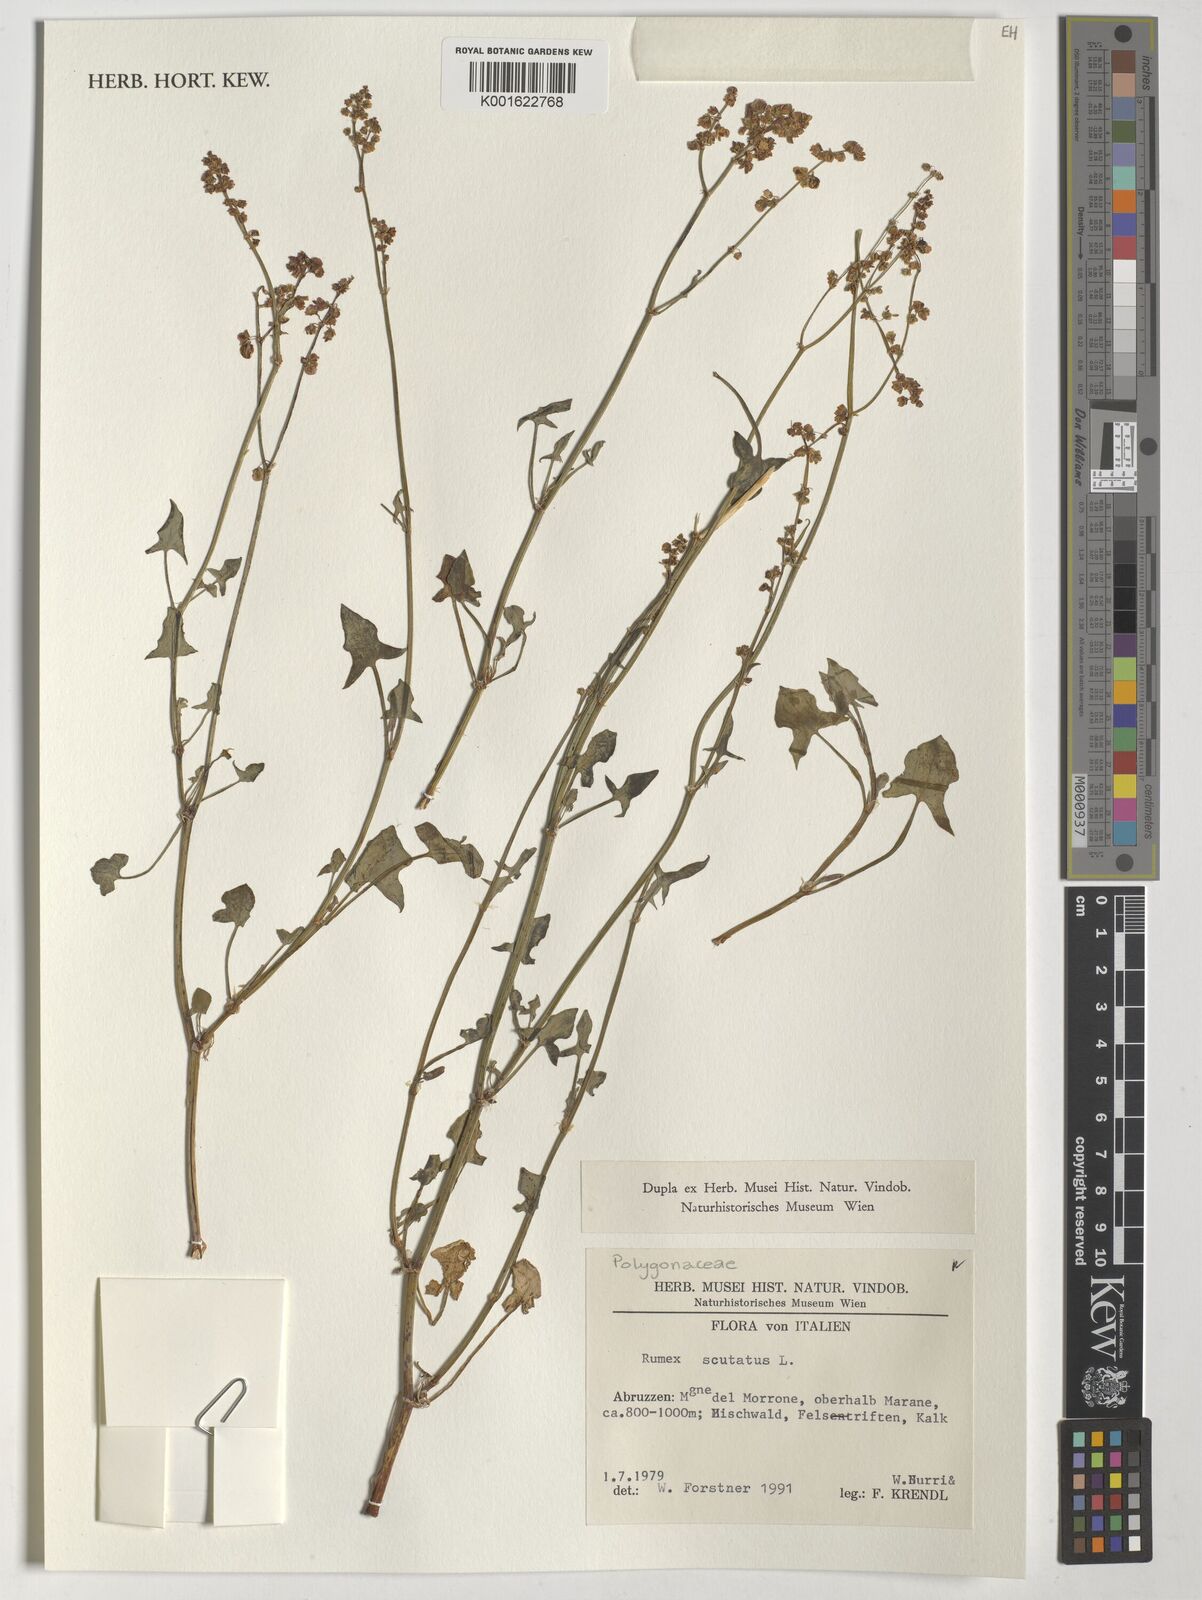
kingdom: Plantae
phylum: Tracheophyta
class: Magnoliopsida
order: Caryophyllales
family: Polygonaceae
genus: Rumex
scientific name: Rumex scutatus
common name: French sorrel
